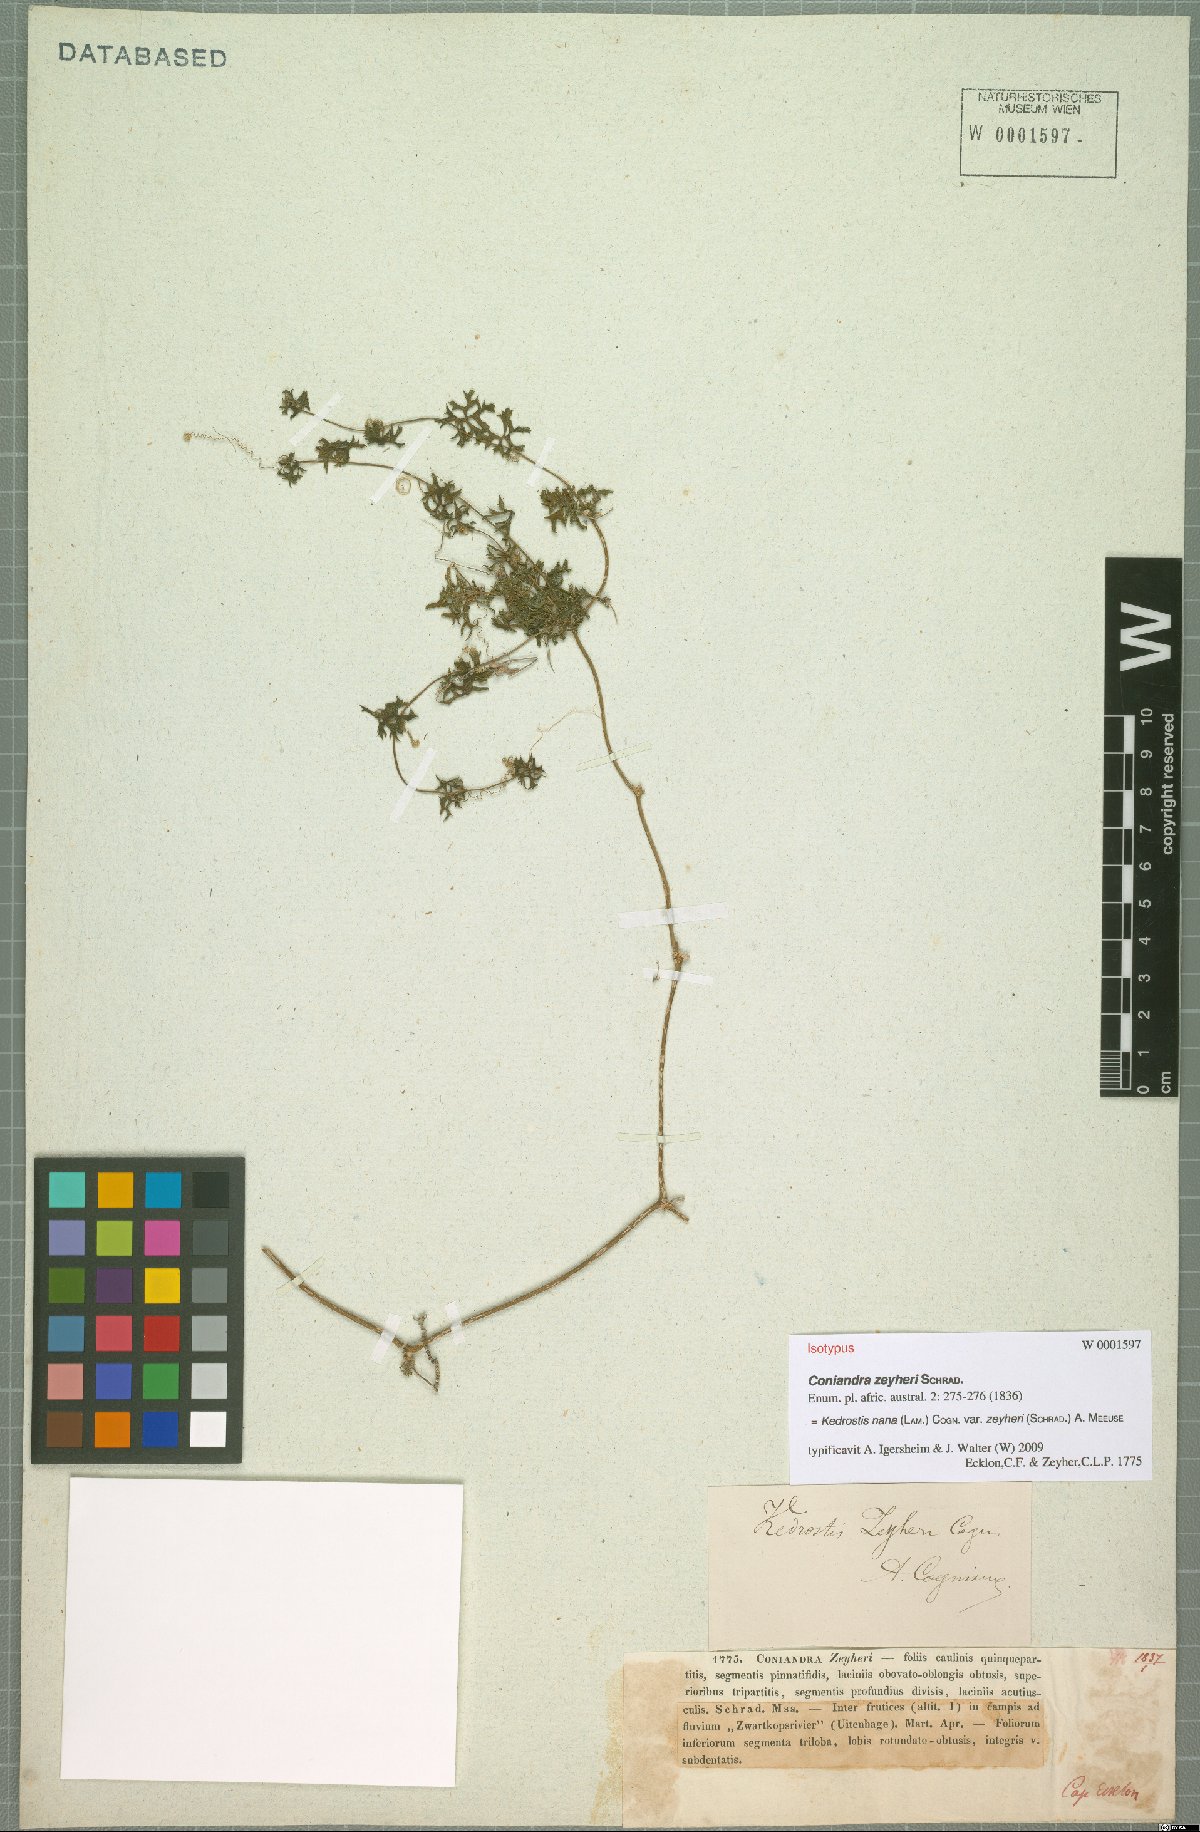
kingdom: Plantae
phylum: Tracheophyta
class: Magnoliopsida
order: Cucurbitales
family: Cucurbitaceae
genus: Kedrostis
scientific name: Kedrostis nana
